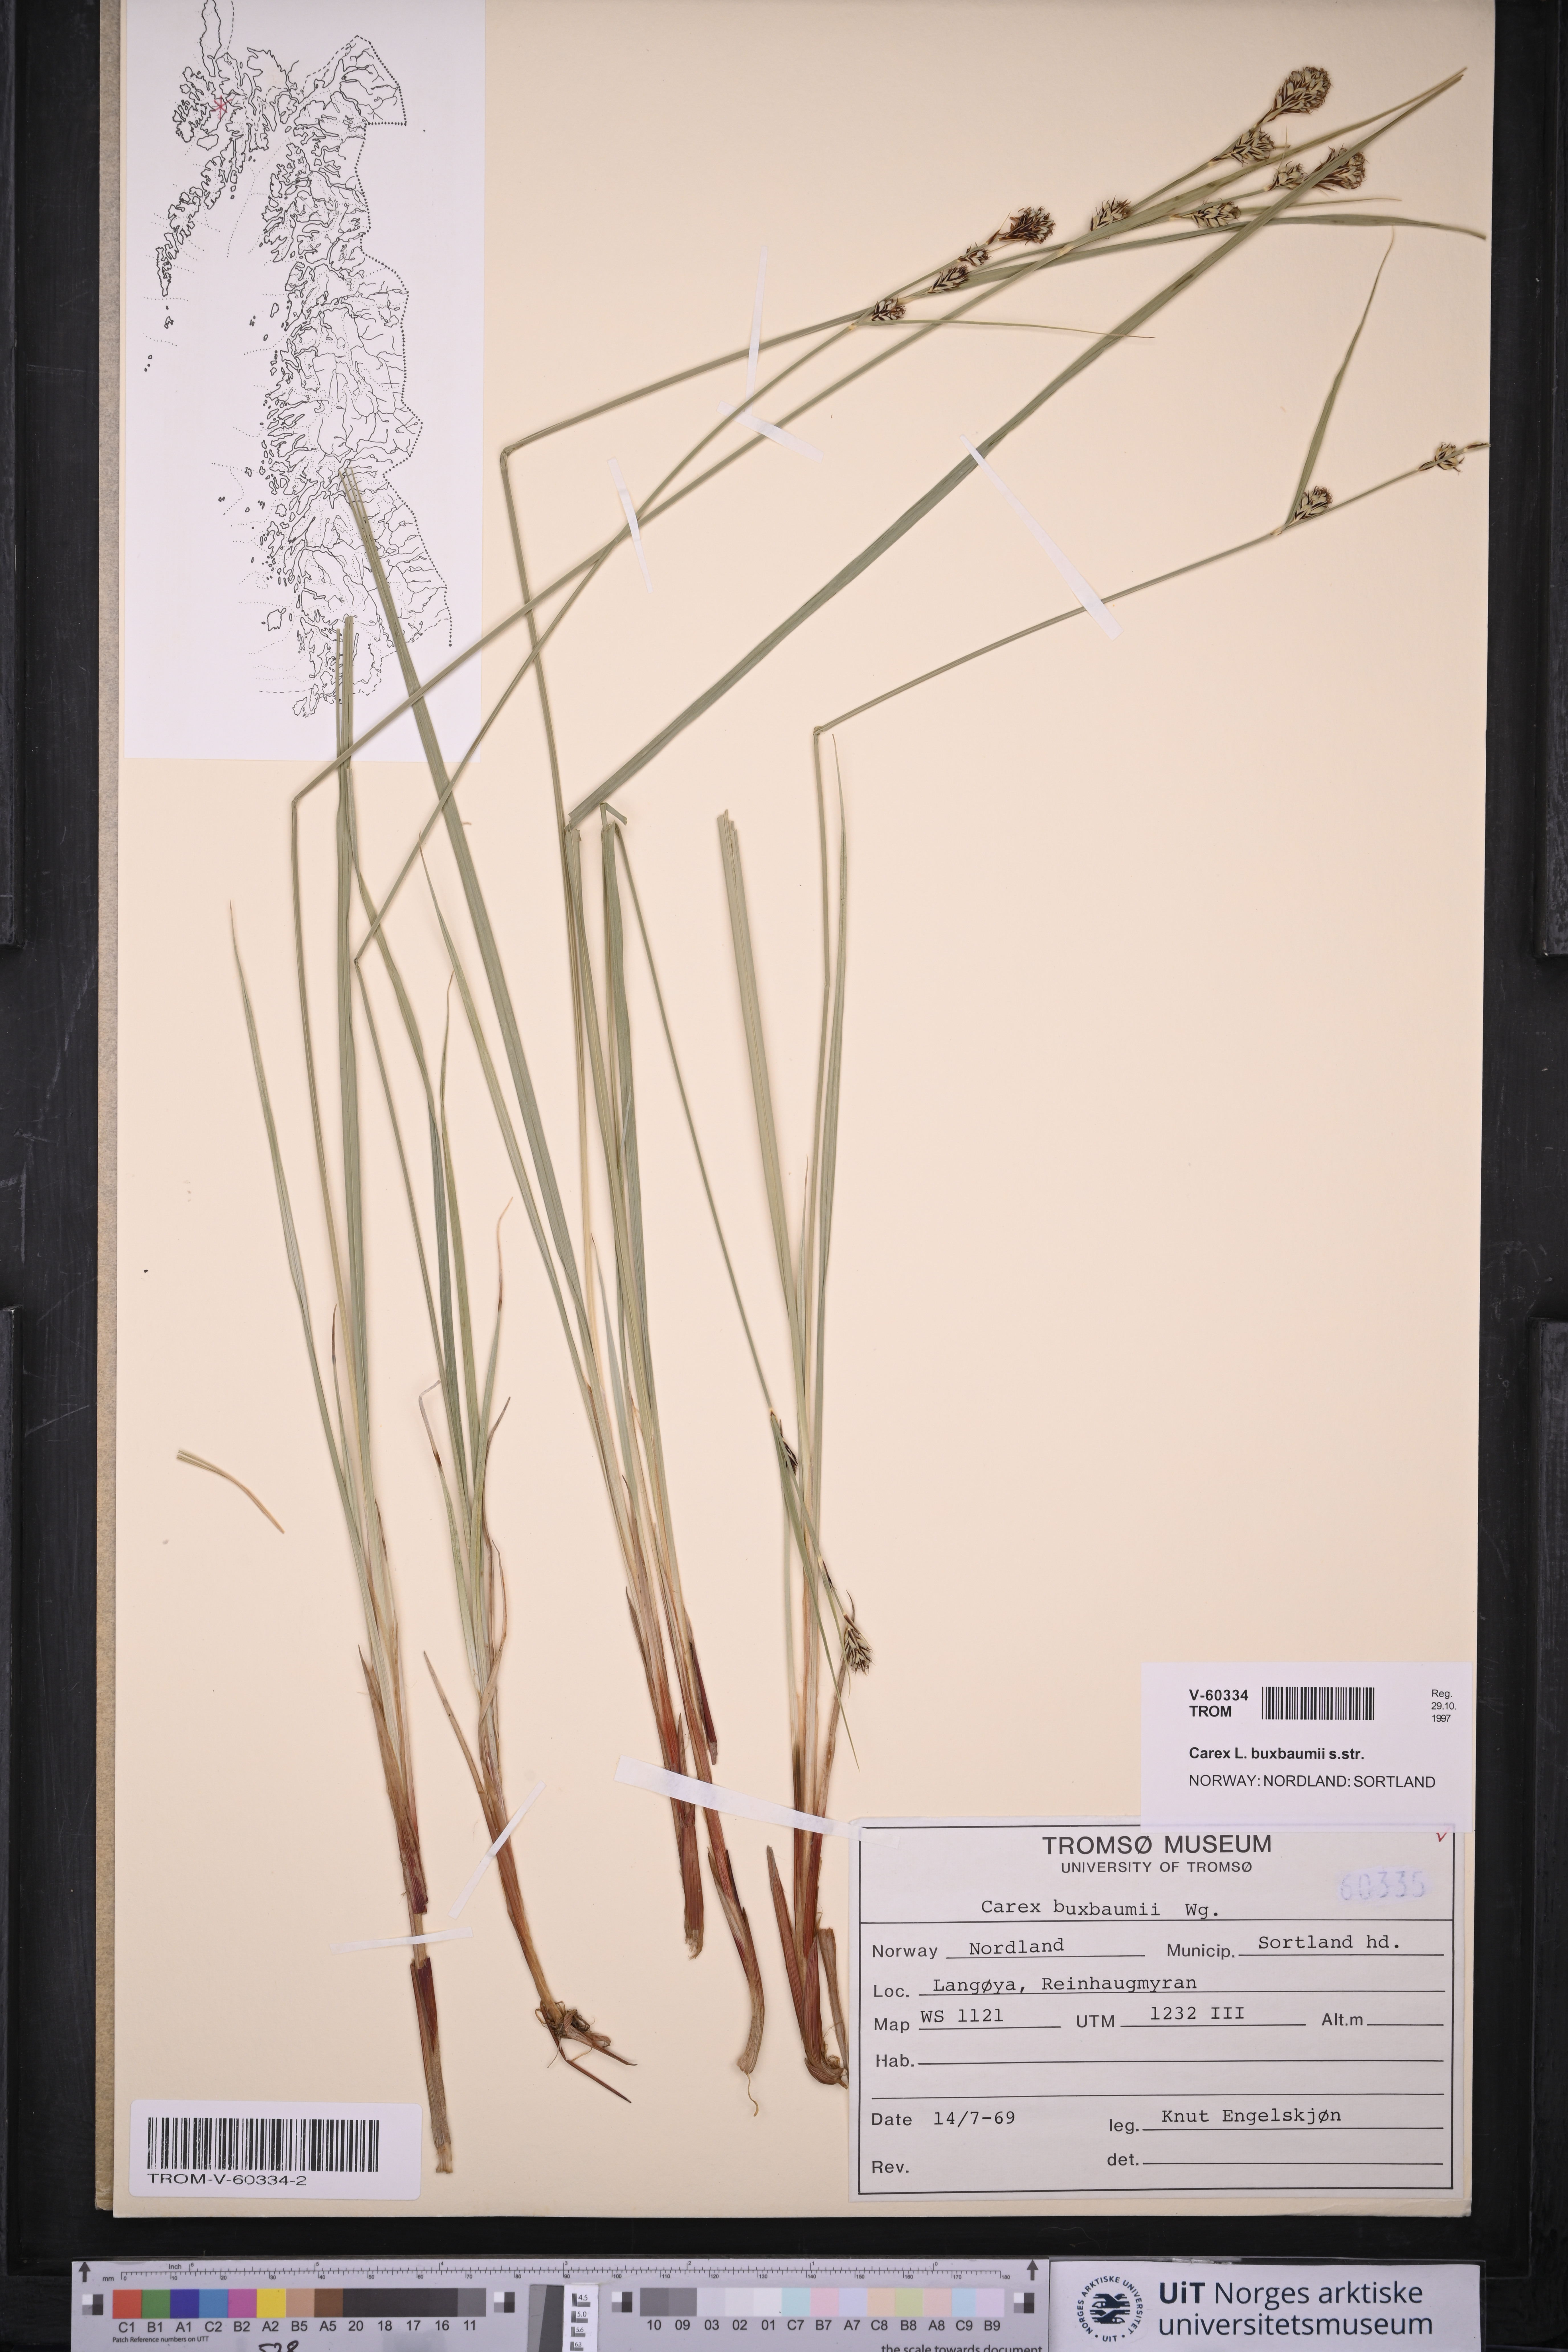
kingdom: Plantae
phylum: Tracheophyta
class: Liliopsida
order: Poales
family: Cyperaceae
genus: Carex
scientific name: Carex buxbaumii
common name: Club sedge
